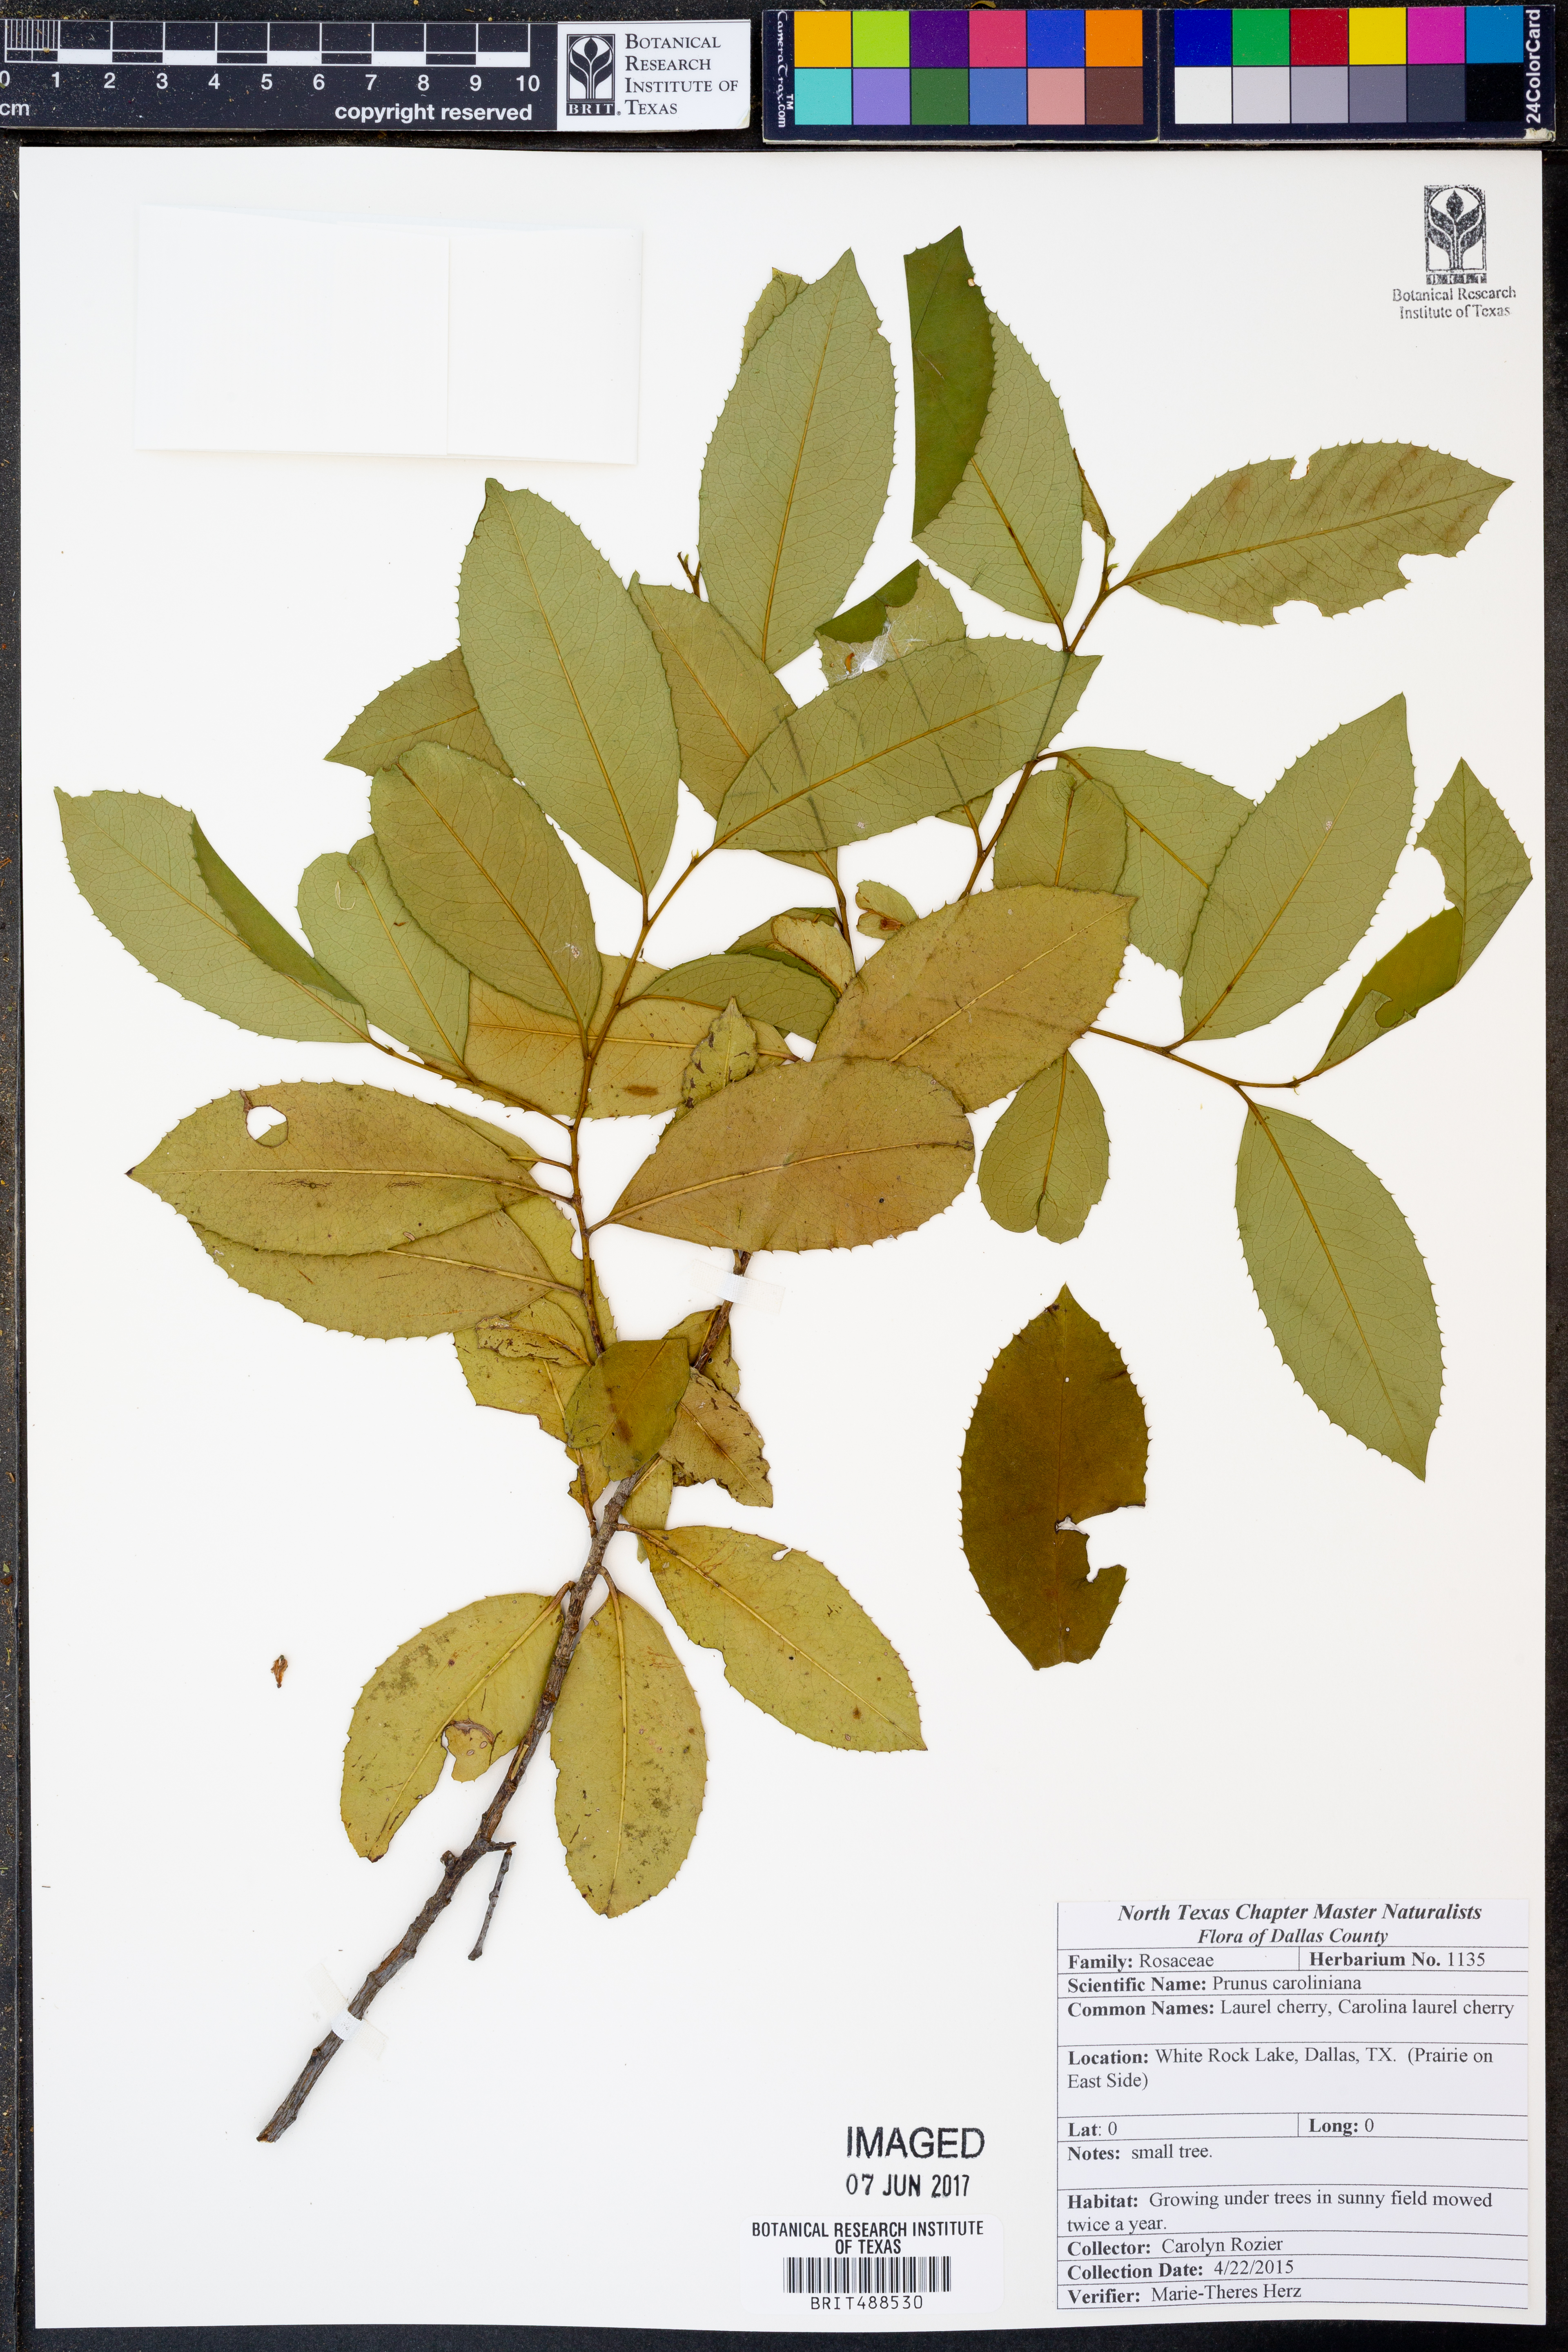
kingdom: Plantae
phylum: Tracheophyta
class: Magnoliopsida
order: Rosales
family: Rosaceae
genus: Prunus
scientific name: Prunus caroliniana
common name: Carolina laurel cherry
